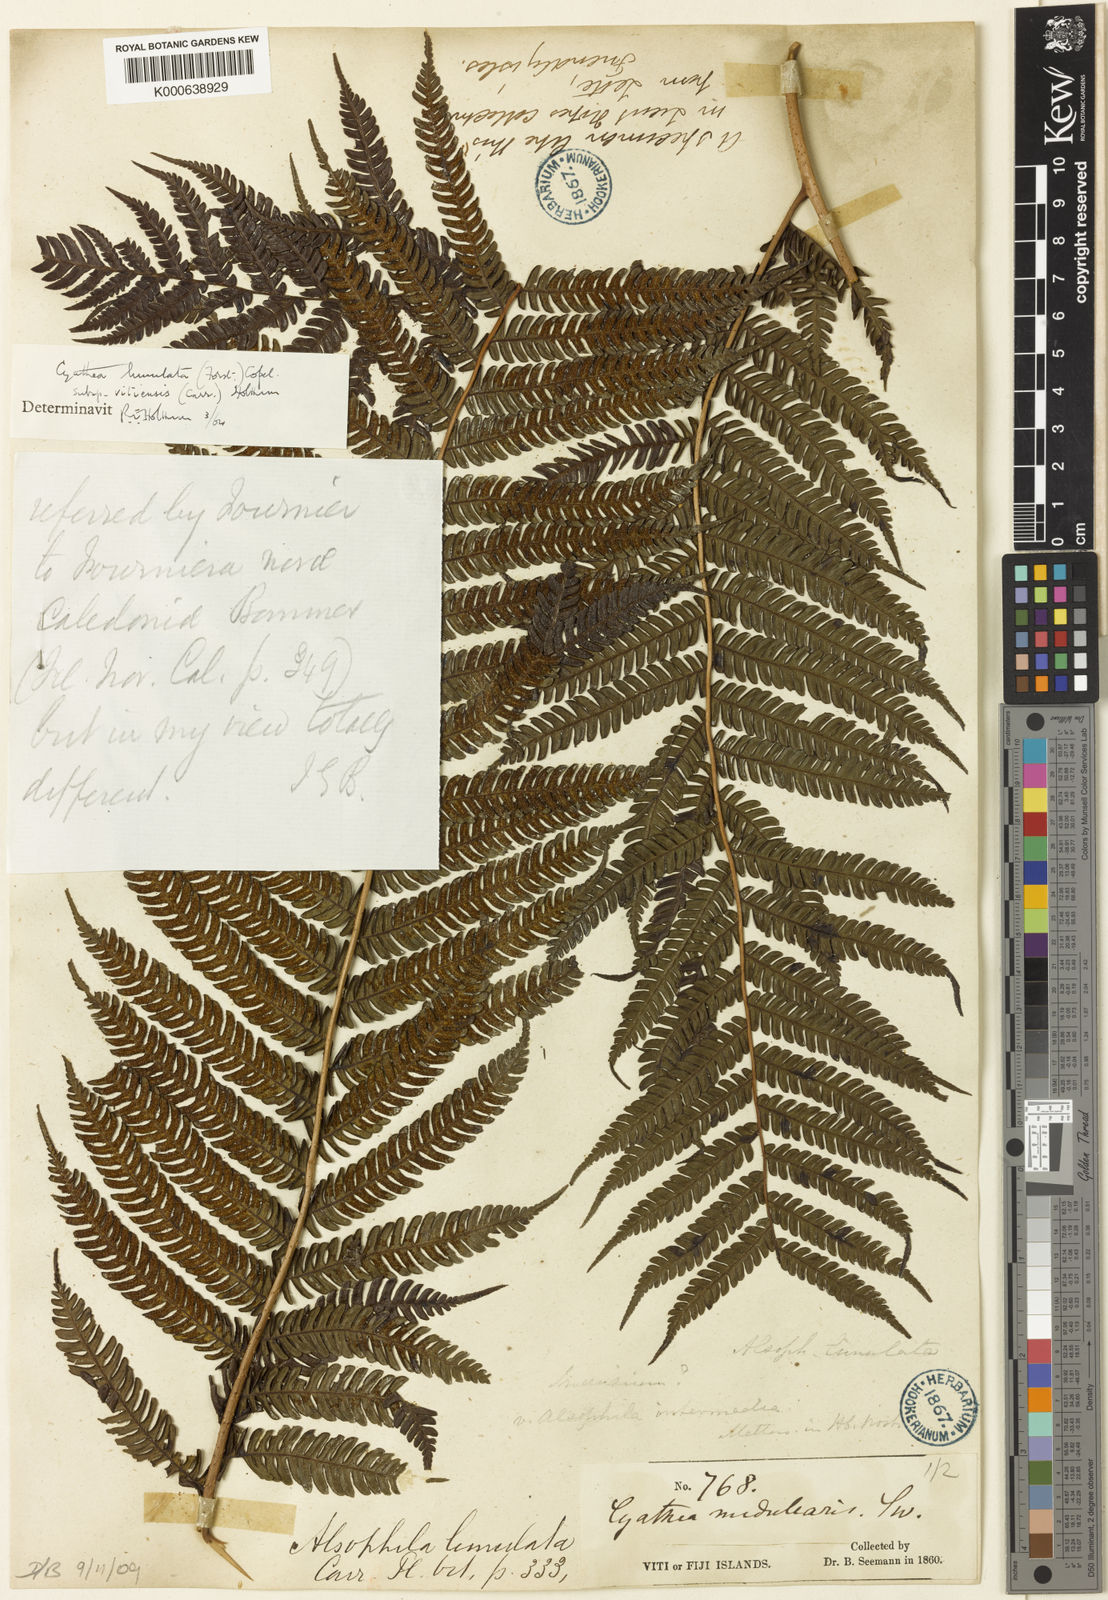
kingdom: Plantae
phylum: Tracheophyta
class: Polypodiopsida
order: Cyatheales
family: Cyatheaceae
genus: Sphaeropteris
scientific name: Sphaeropteris lunulata
